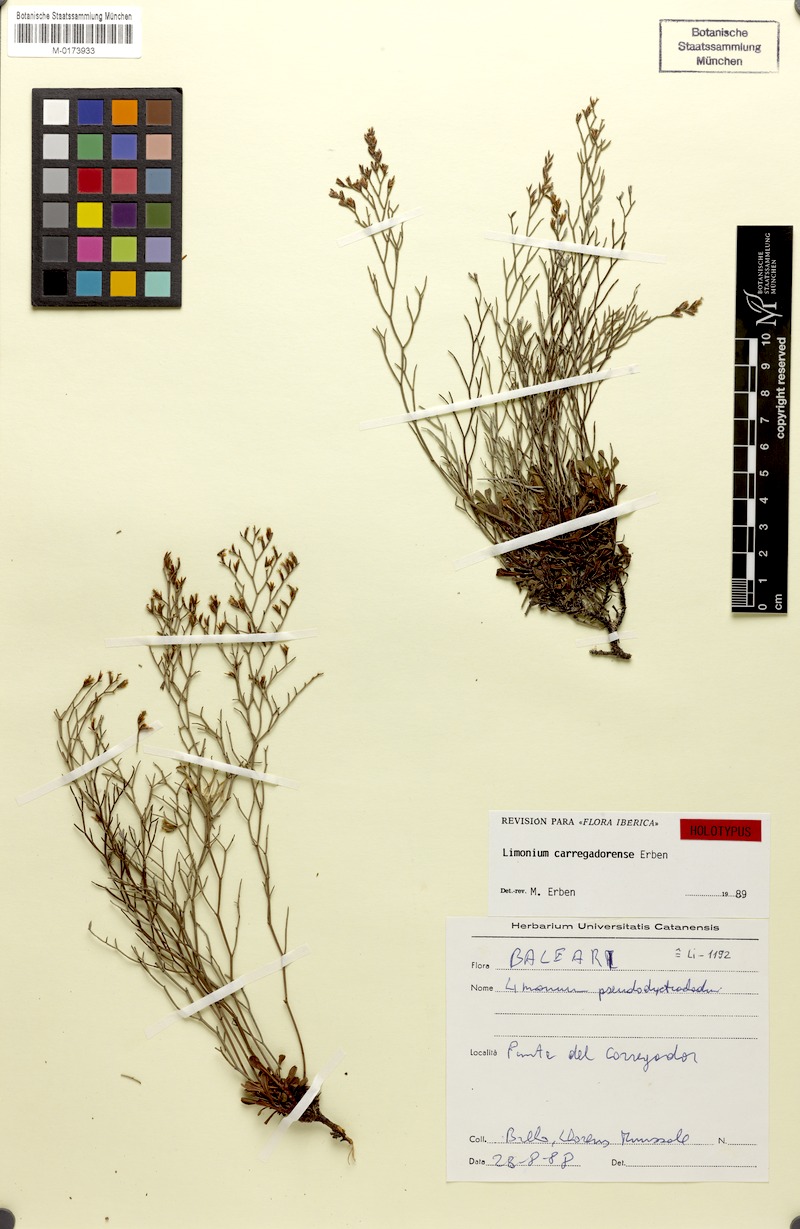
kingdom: Plantae
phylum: Tracheophyta
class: Magnoliopsida
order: Caryophyllales
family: Plumbaginaceae
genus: Limonium
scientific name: Limonium carregadorense
